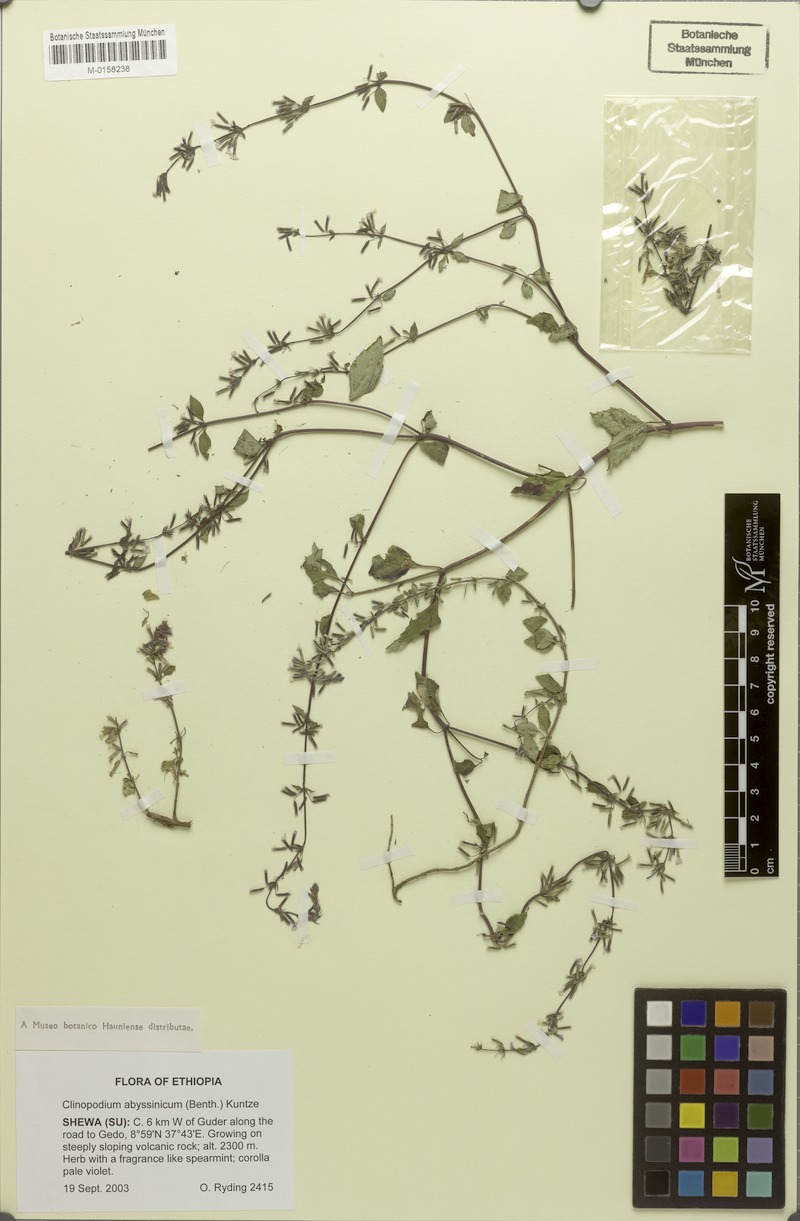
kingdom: Plantae
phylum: Tracheophyta
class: Magnoliopsida
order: Lamiales
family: Lamiaceae
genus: Clinopodium
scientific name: Clinopodium abyssinicum
